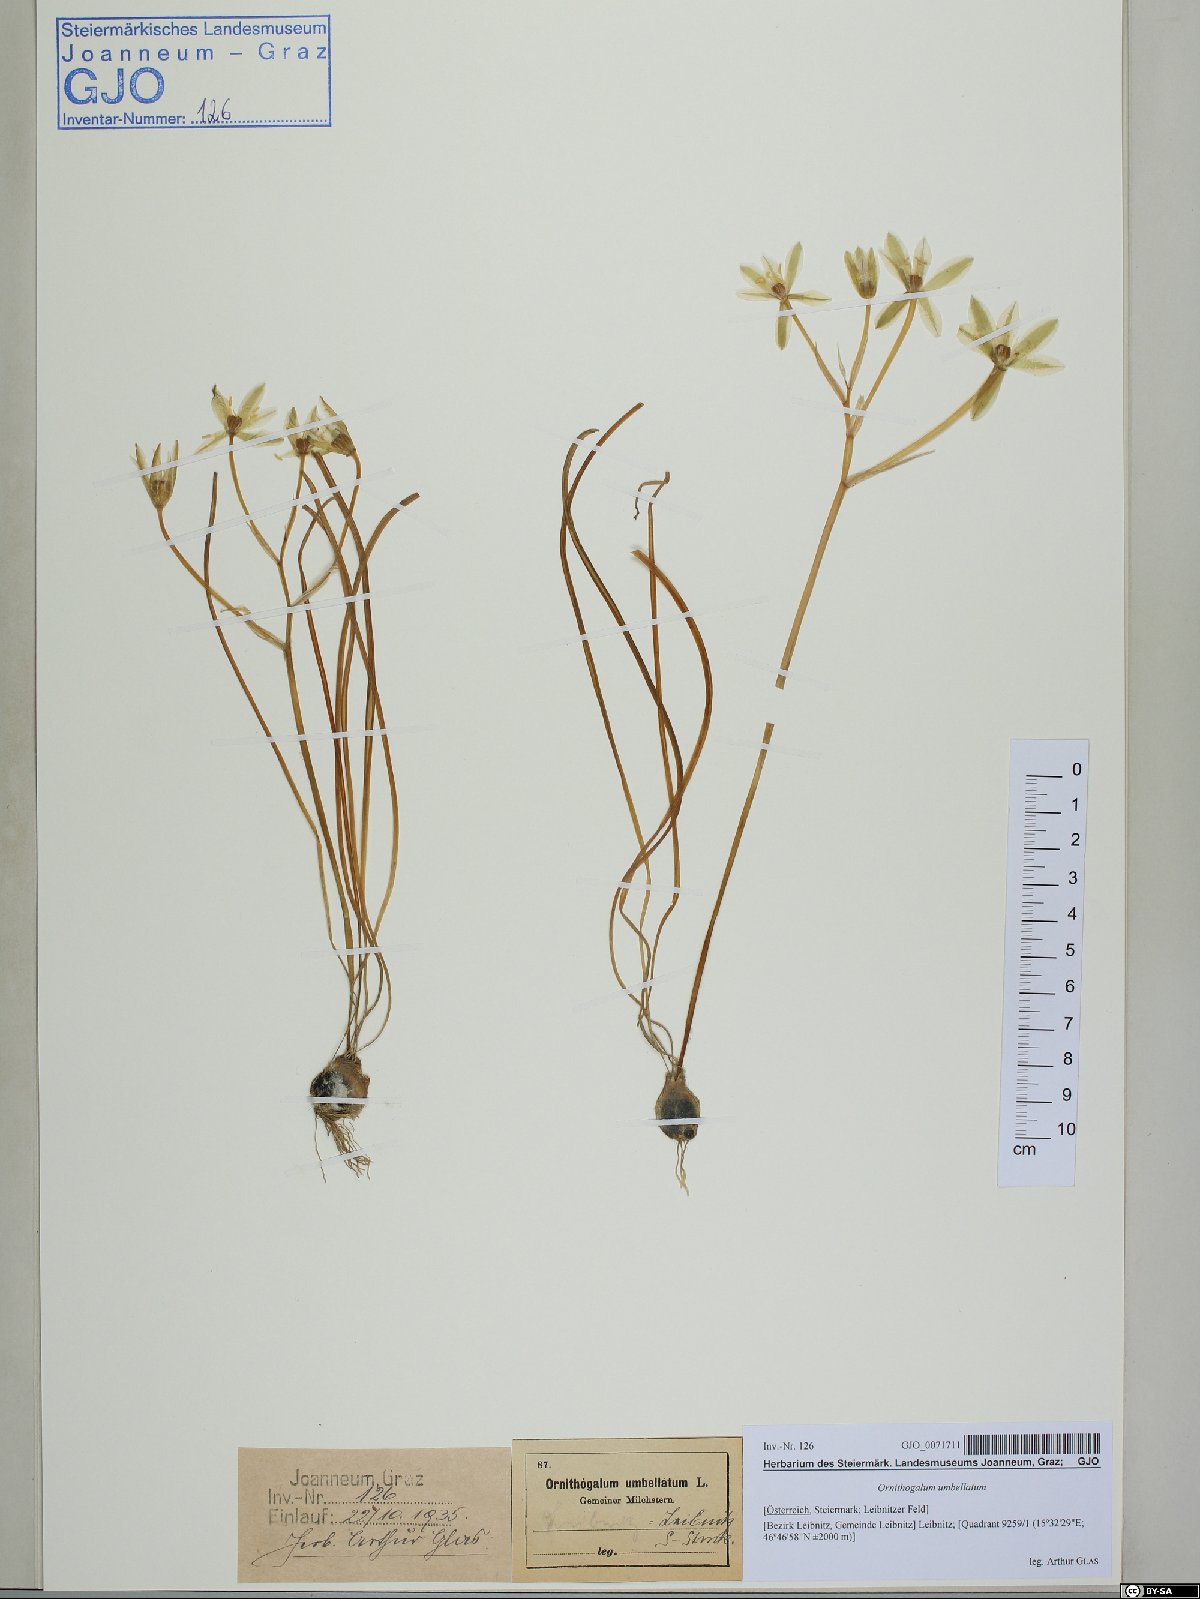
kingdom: Plantae
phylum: Tracheophyta
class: Liliopsida
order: Asparagales
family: Asparagaceae
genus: Ornithogalum
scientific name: Ornithogalum umbellatum
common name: Garden star-of-bethlehem
